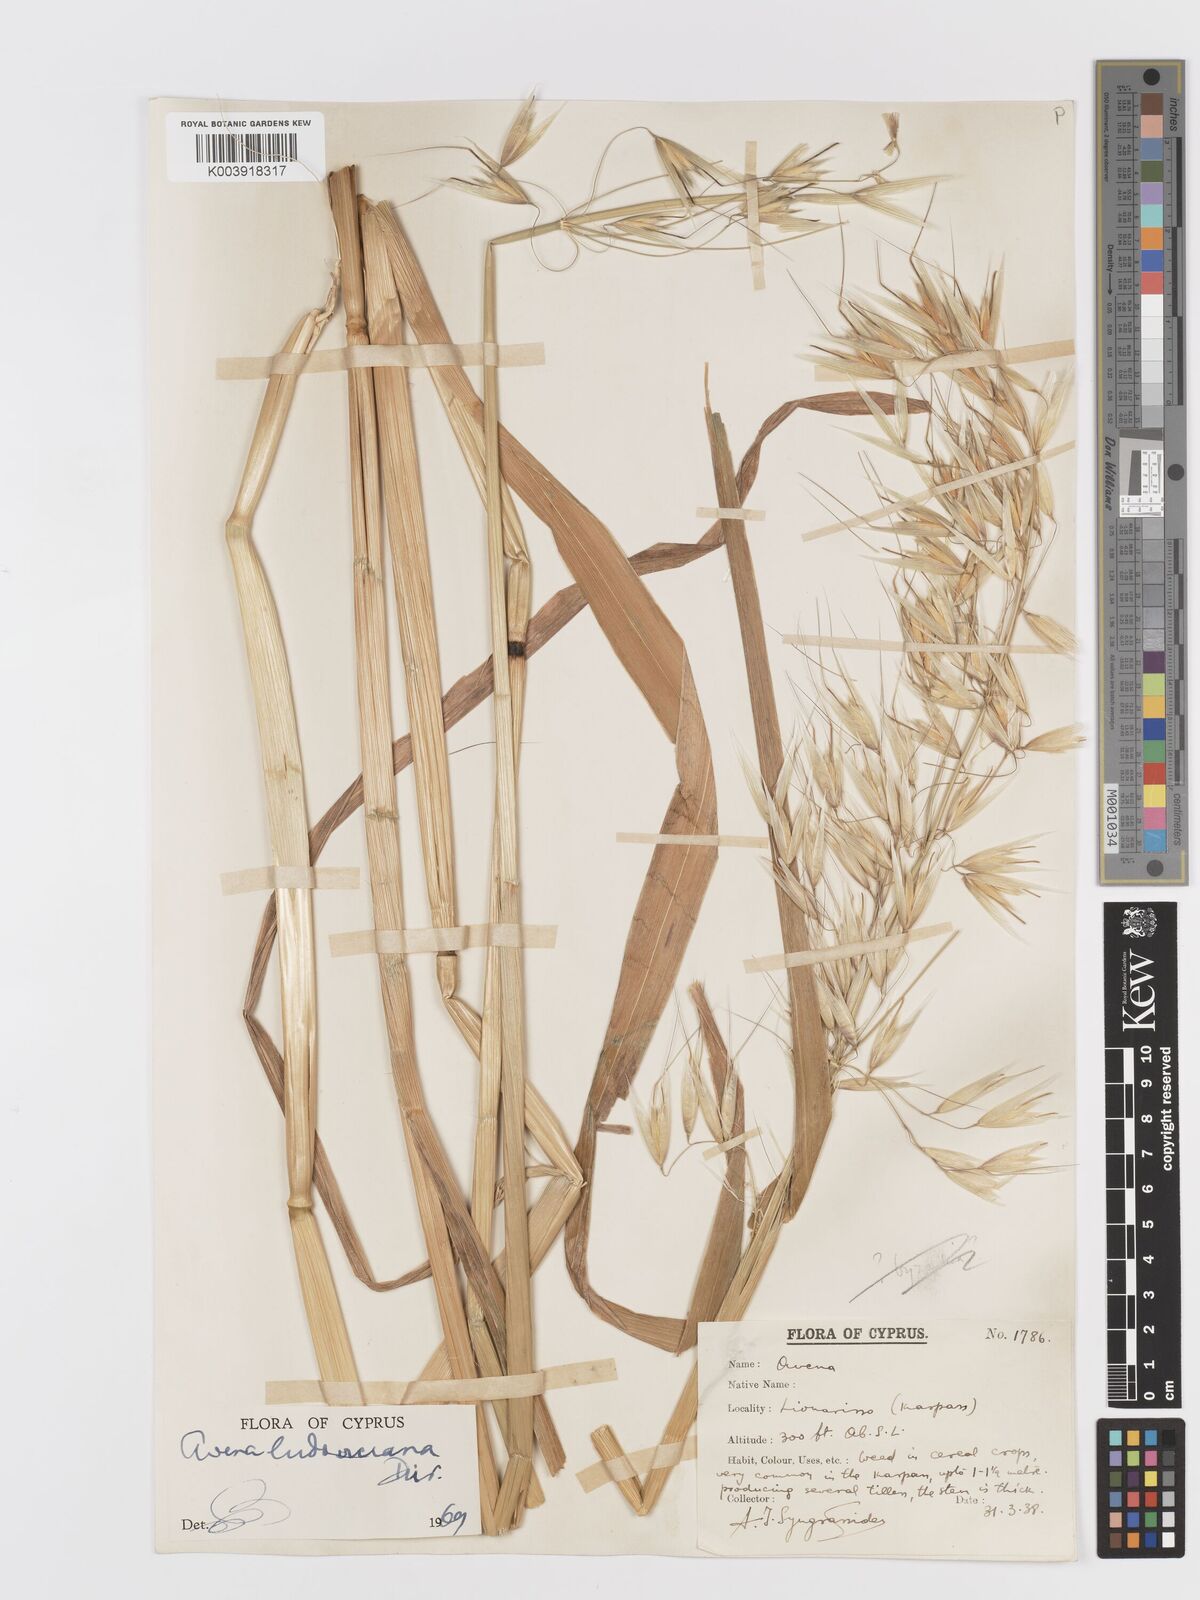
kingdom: Plantae
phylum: Tracheophyta
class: Liliopsida
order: Poales
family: Poaceae
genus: Avena
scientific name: Avena sterilis
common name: Animated oat
